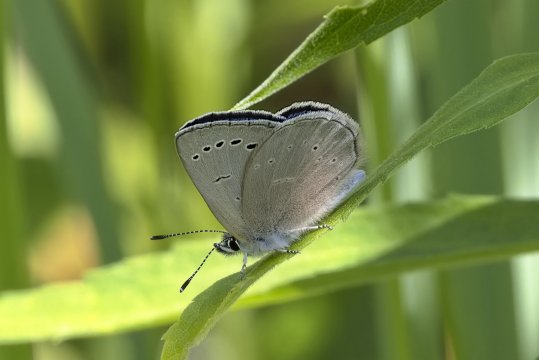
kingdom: Animalia
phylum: Arthropoda
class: Insecta
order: Lepidoptera
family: Lycaenidae
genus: Glaucopsyche
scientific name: Glaucopsyche lygdamus
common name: Silvery Blue
